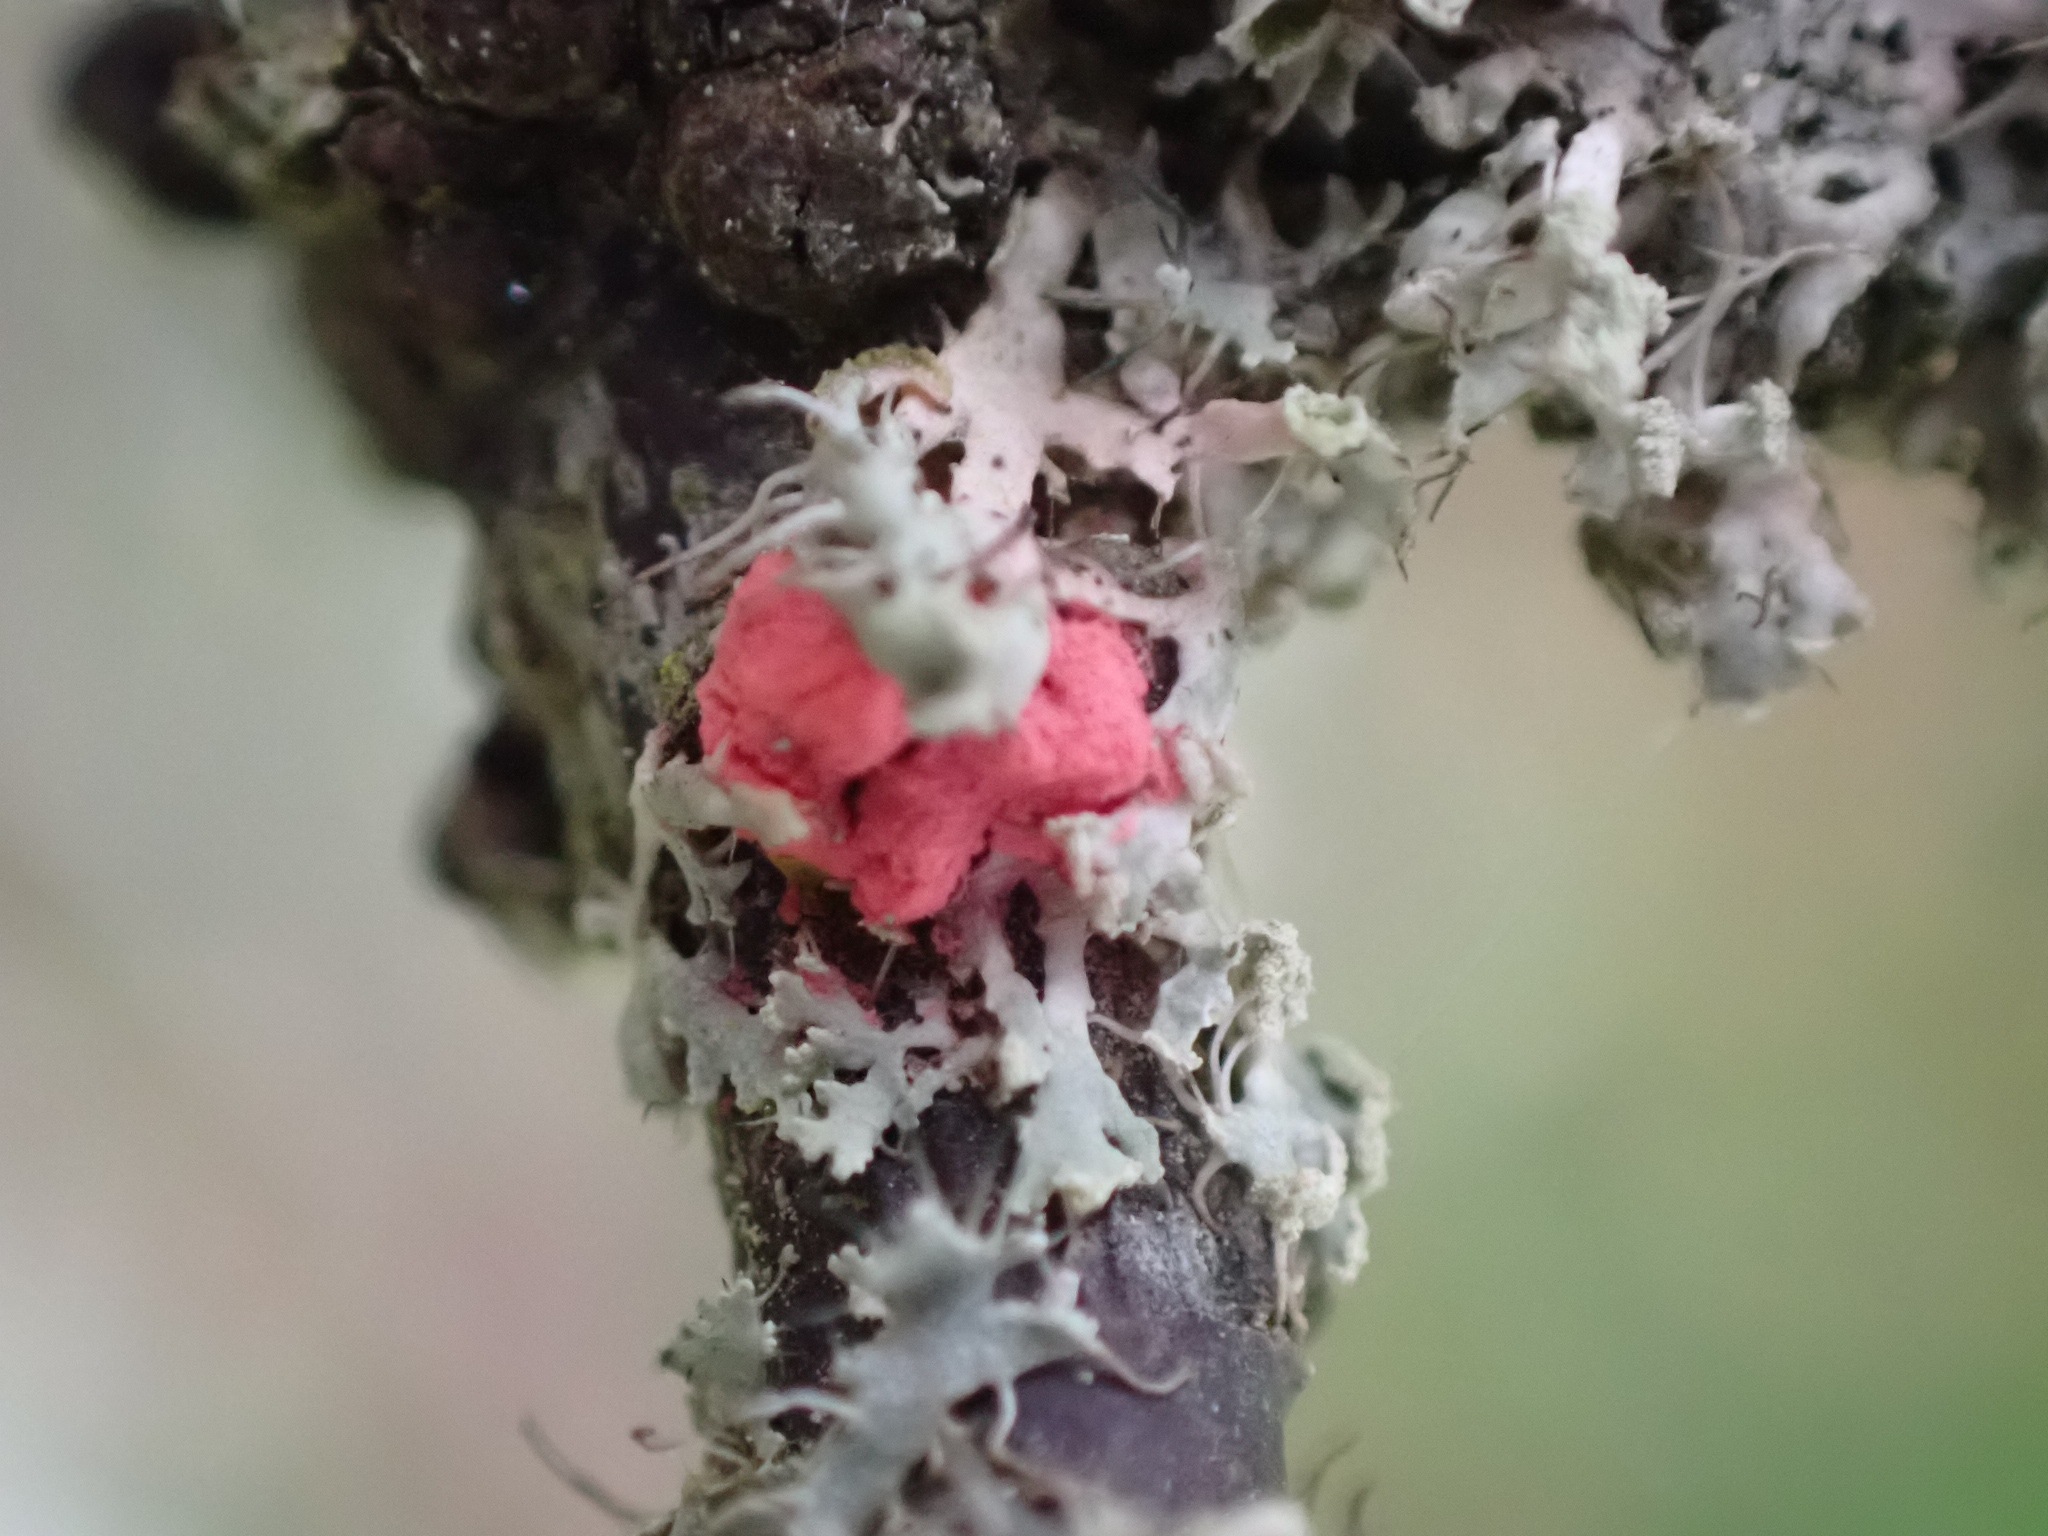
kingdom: Fungi
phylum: Ascomycota
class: Sordariomycetes
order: Hypocreales
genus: Illosporiopsis
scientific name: Illosporiopsis christiansenii
